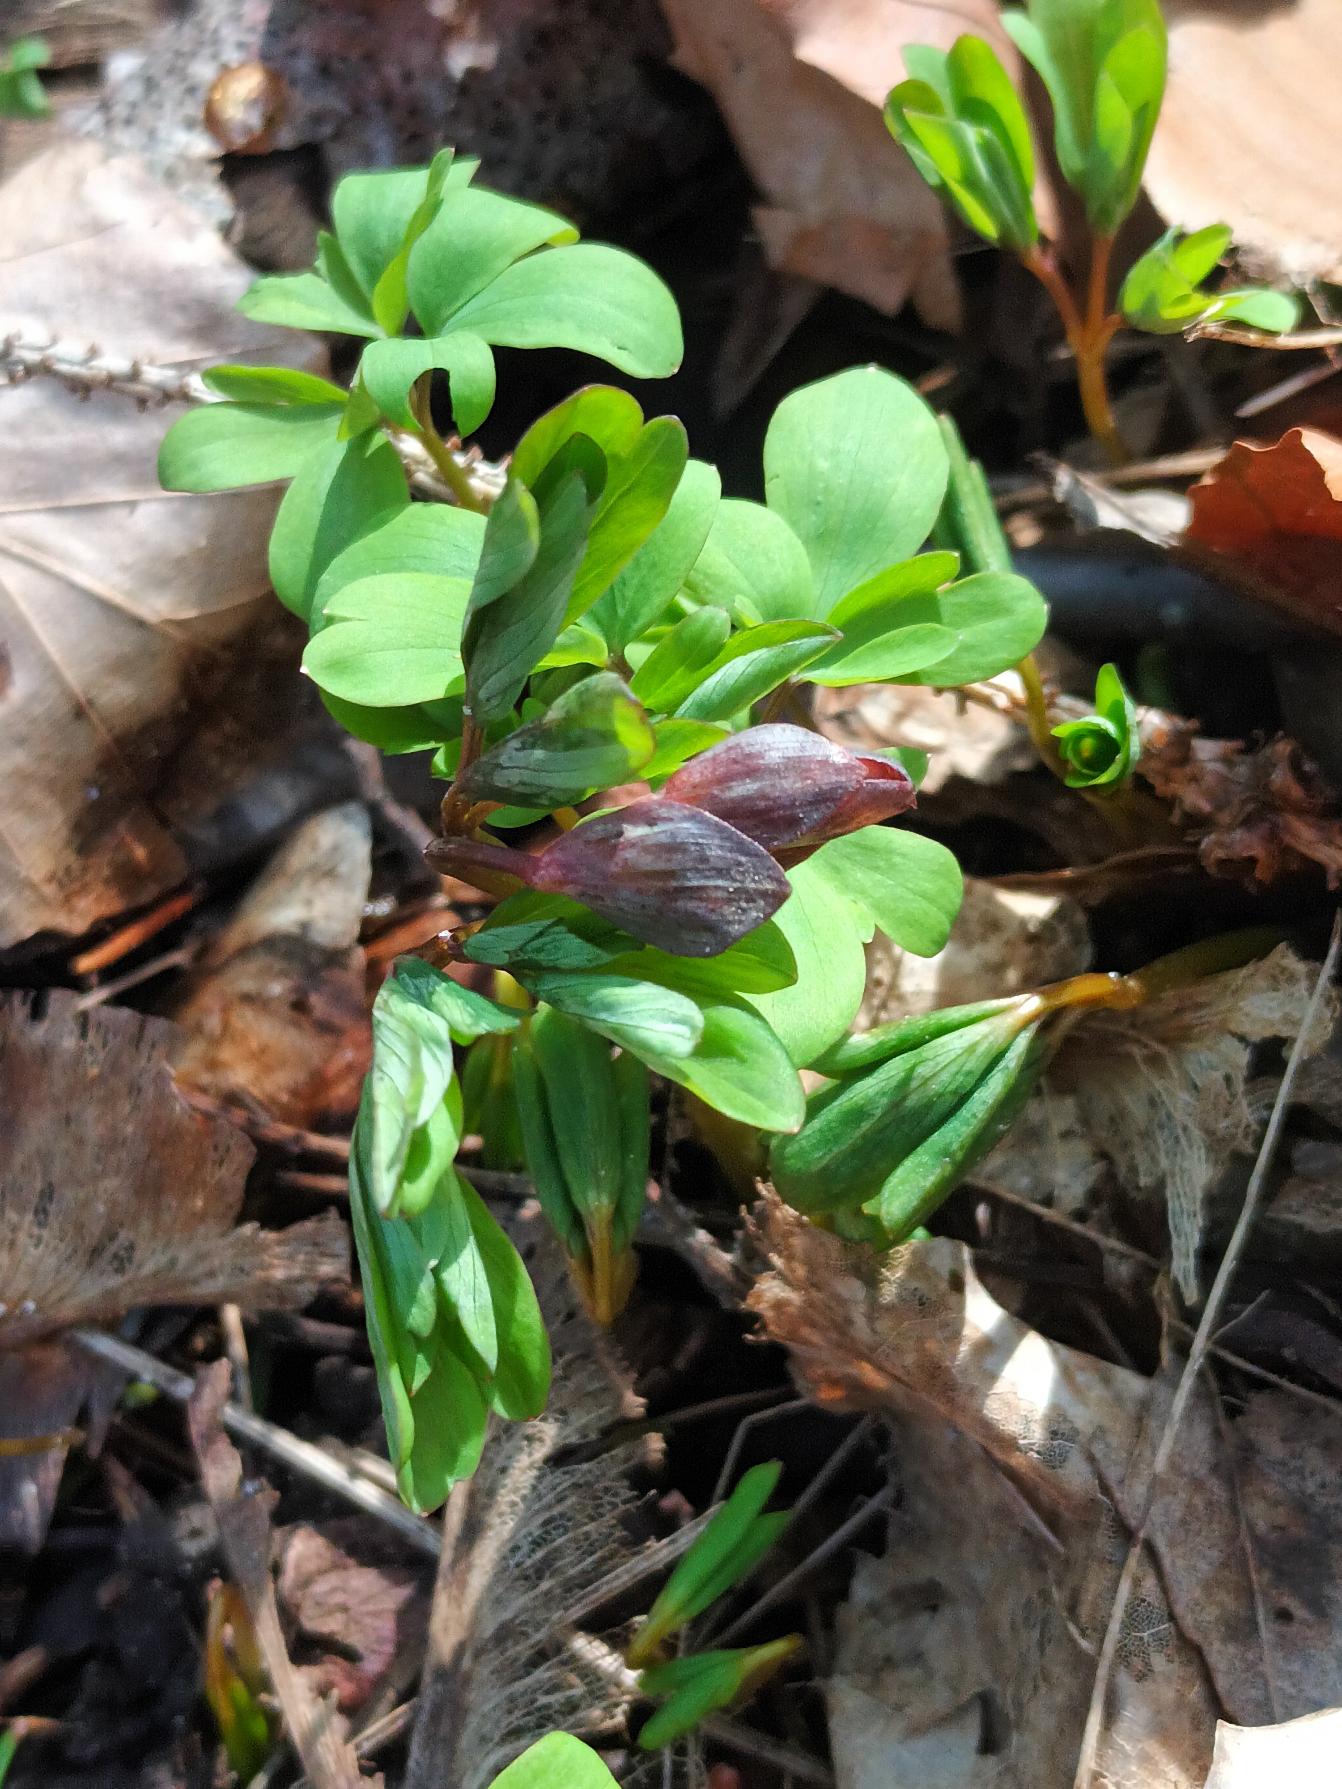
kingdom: Plantae
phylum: Tracheophyta
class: Magnoliopsida
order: Ranunculales
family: Papaveraceae
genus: Corydalis
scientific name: Corydalis cava
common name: Hulrodet lærkespore
